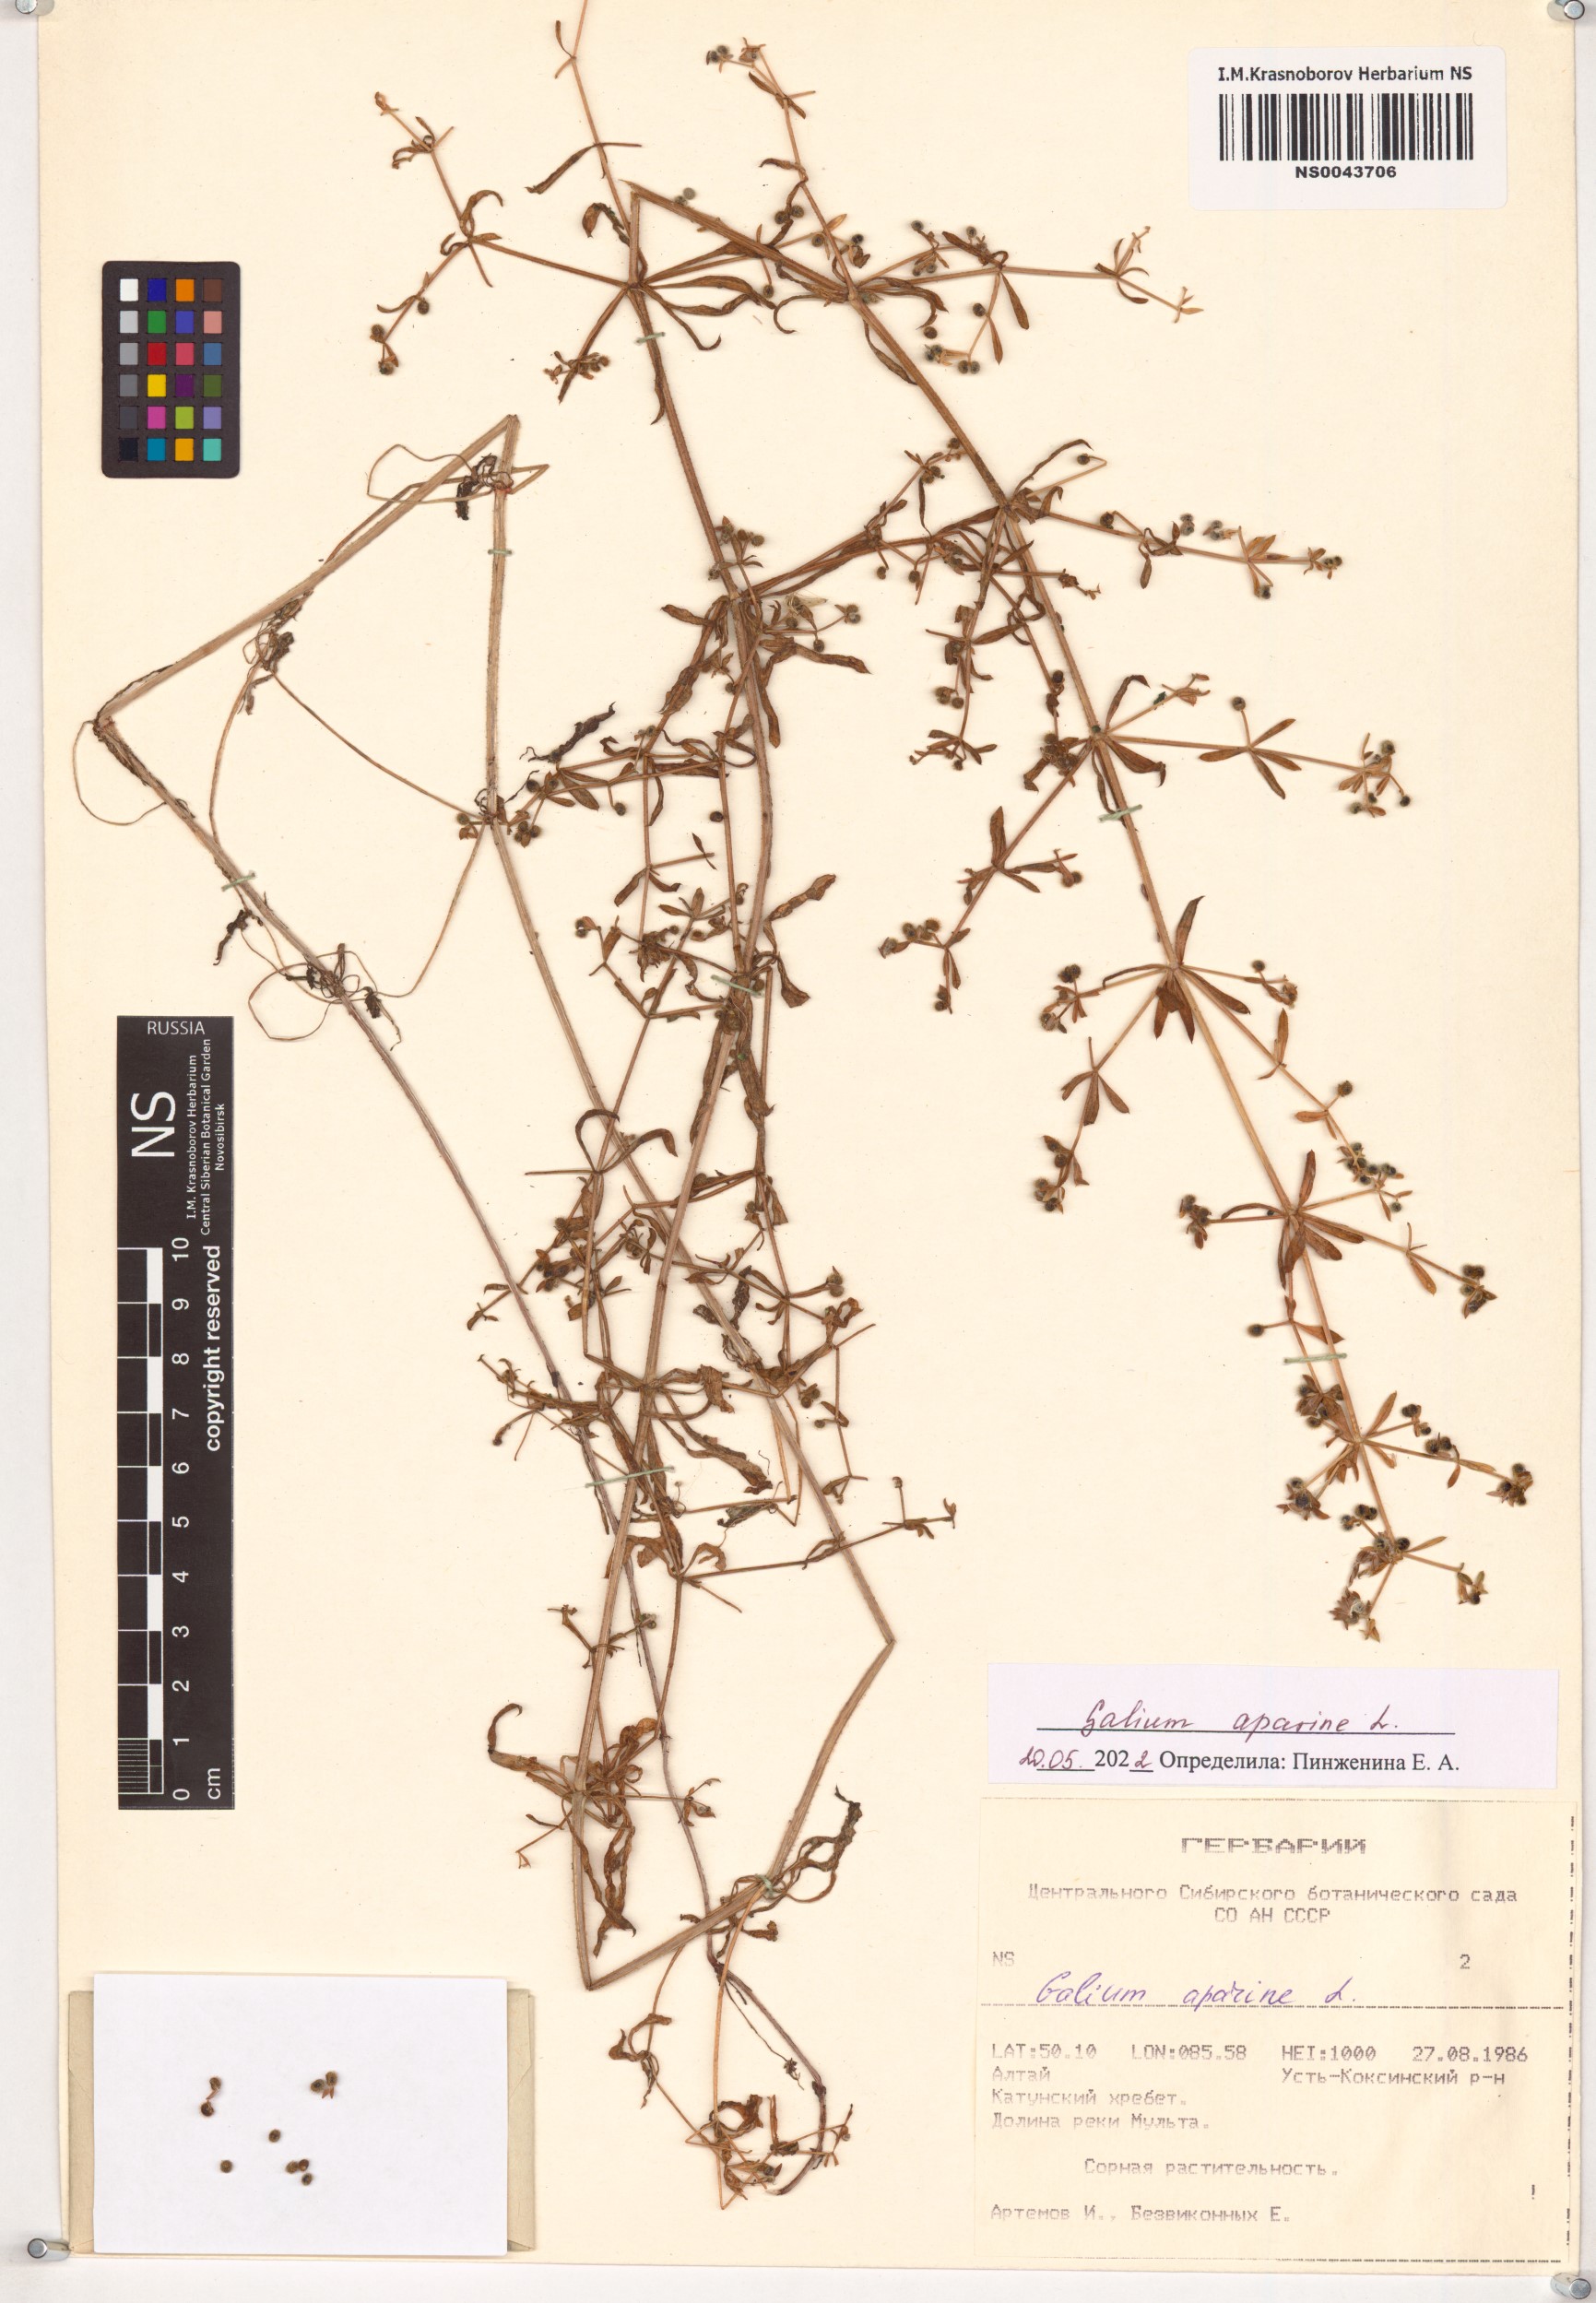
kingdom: Plantae
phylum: Tracheophyta
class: Magnoliopsida
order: Gentianales
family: Rubiaceae
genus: Galium
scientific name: Galium aparine
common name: Cleavers
